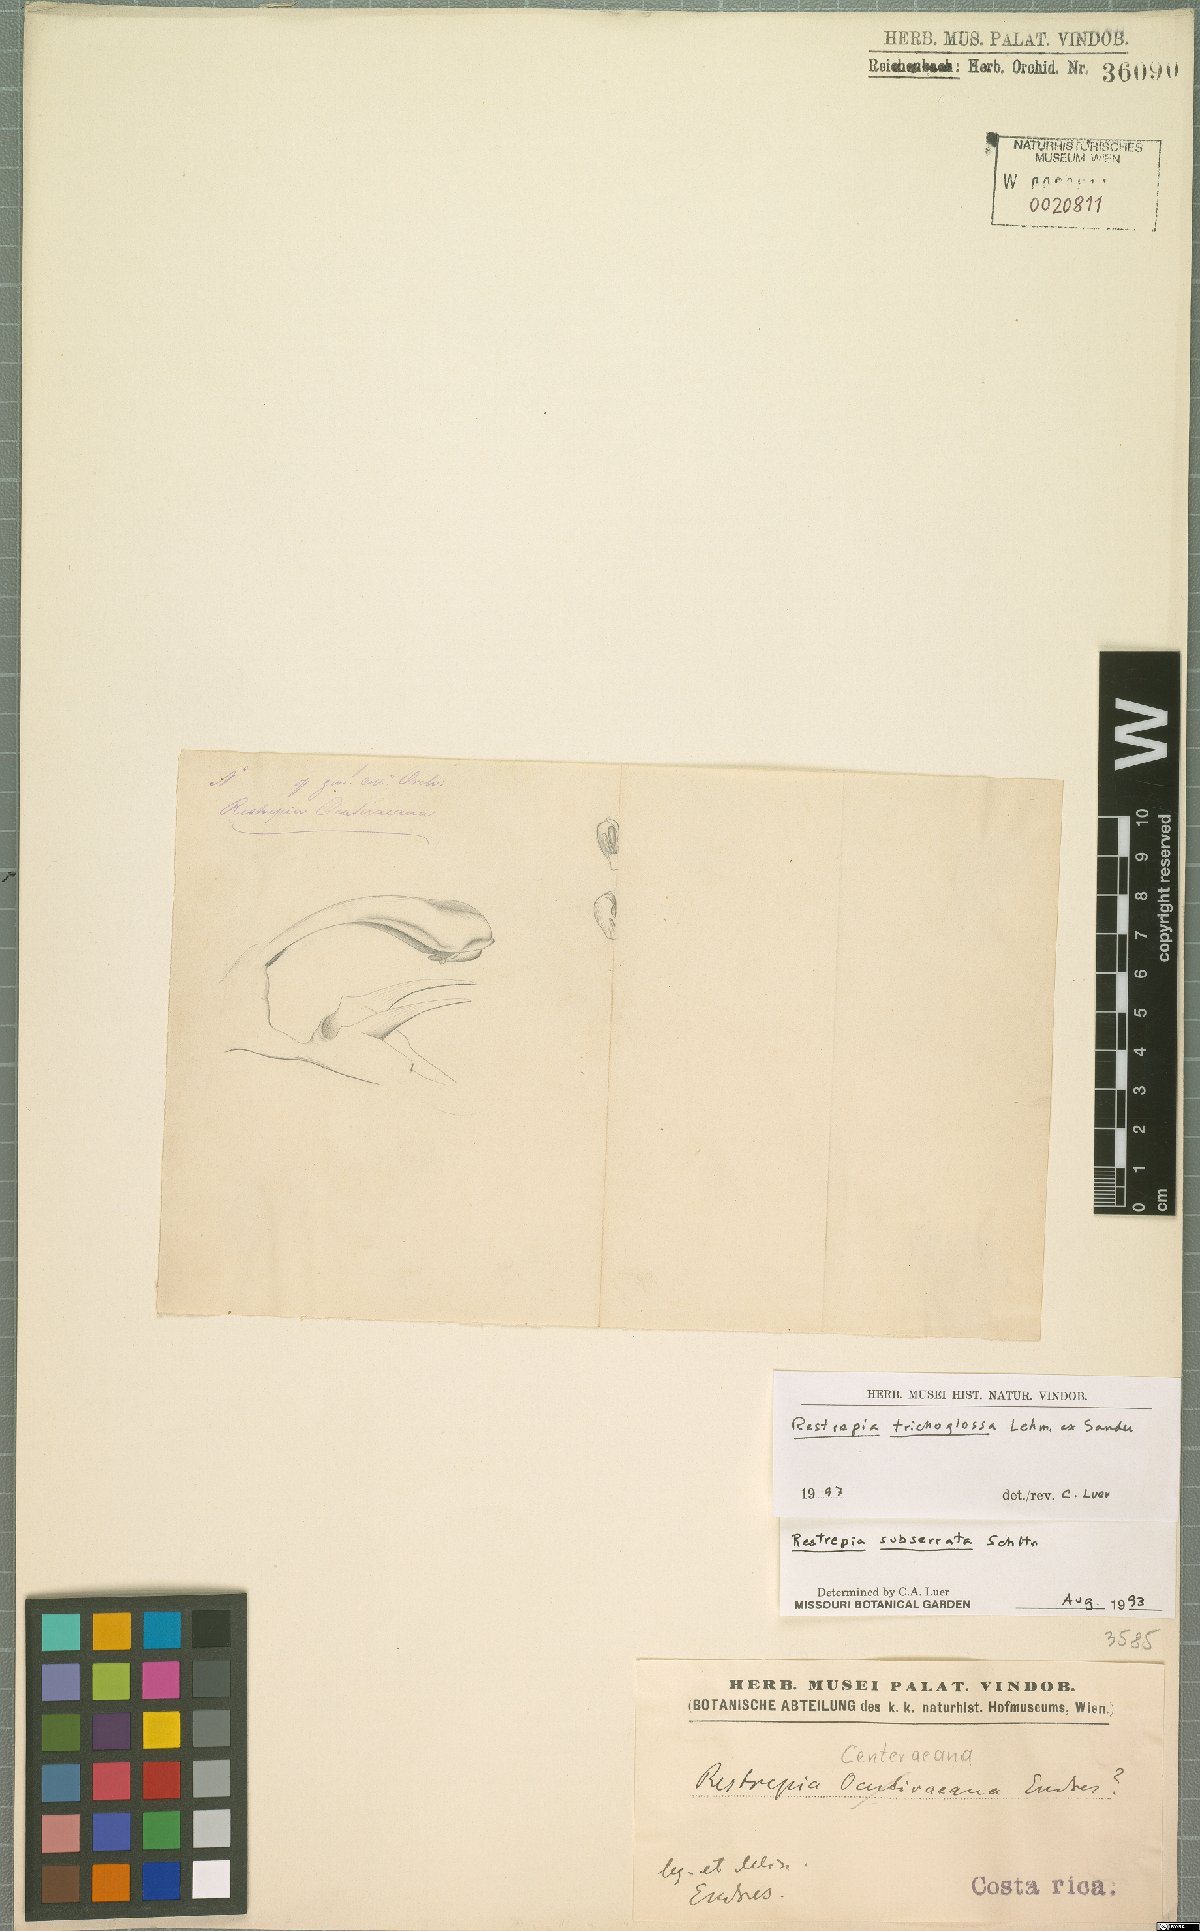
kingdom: Plantae
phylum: Tracheophyta
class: Liliopsida
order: Asparagales
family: Orchidaceae
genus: Restrepia
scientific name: Restrepia trichoglossa
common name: Hairy tongued restrepia
